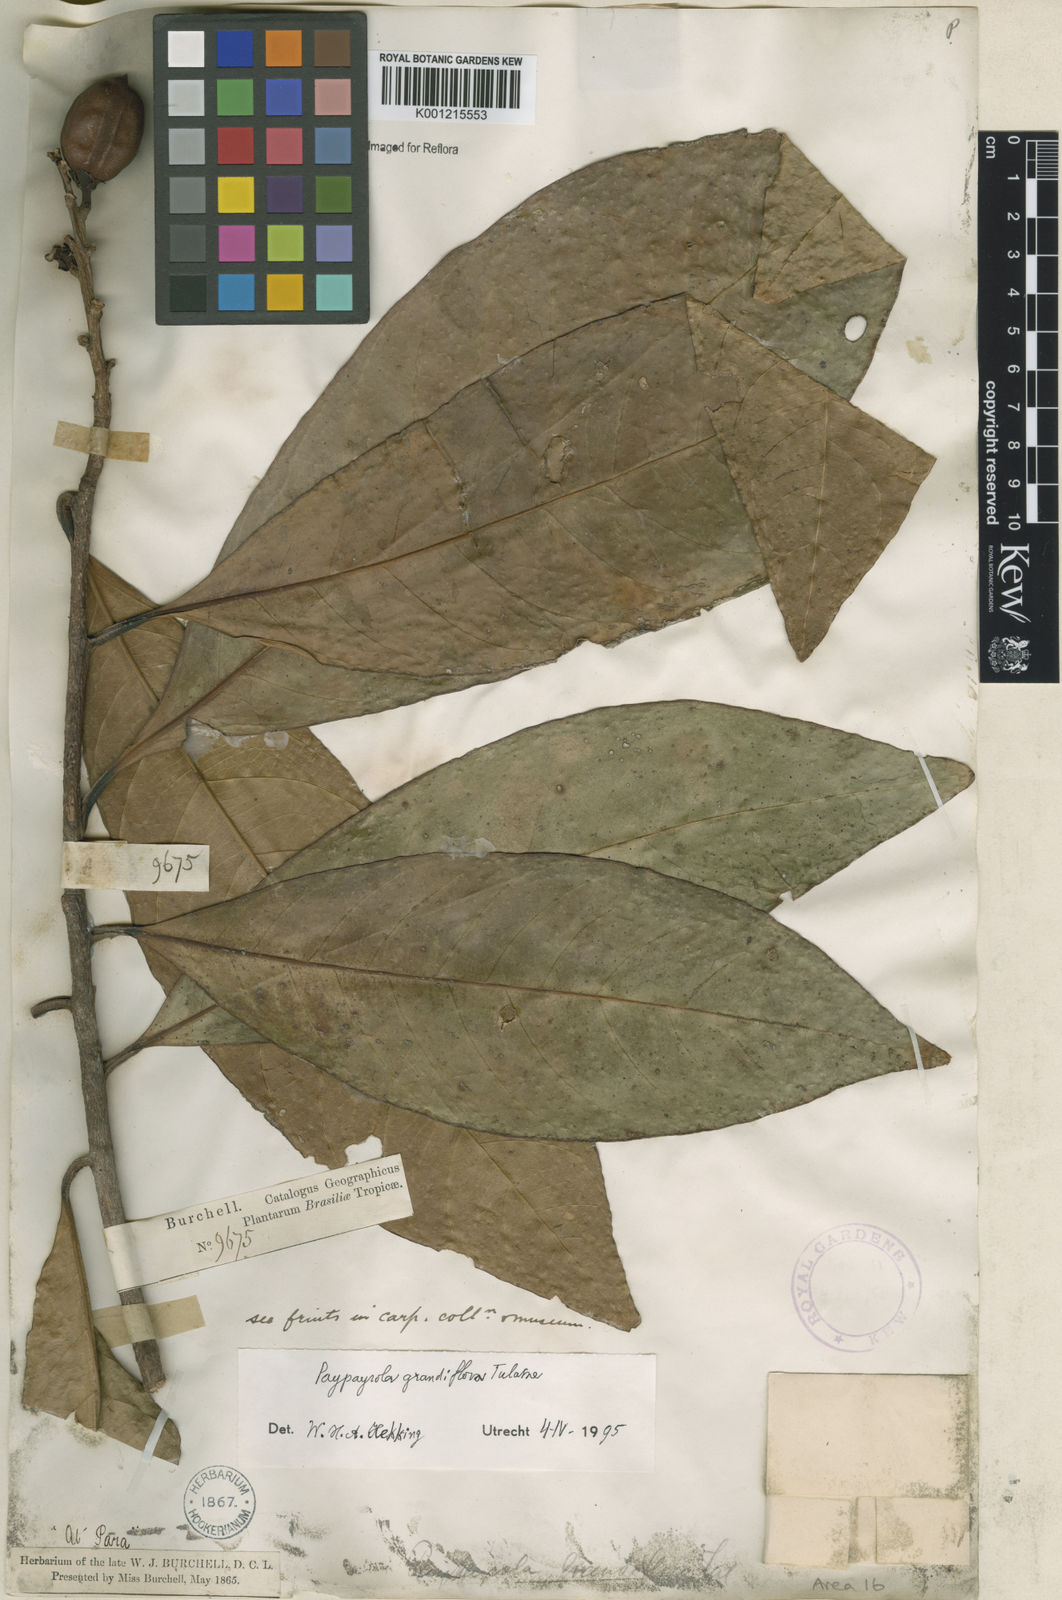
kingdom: Plantae
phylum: Tracheophyta
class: Magnoliopsida
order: Malpighiales
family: Violaceae
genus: Paypayrola
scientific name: Paypayrola grandiflora
